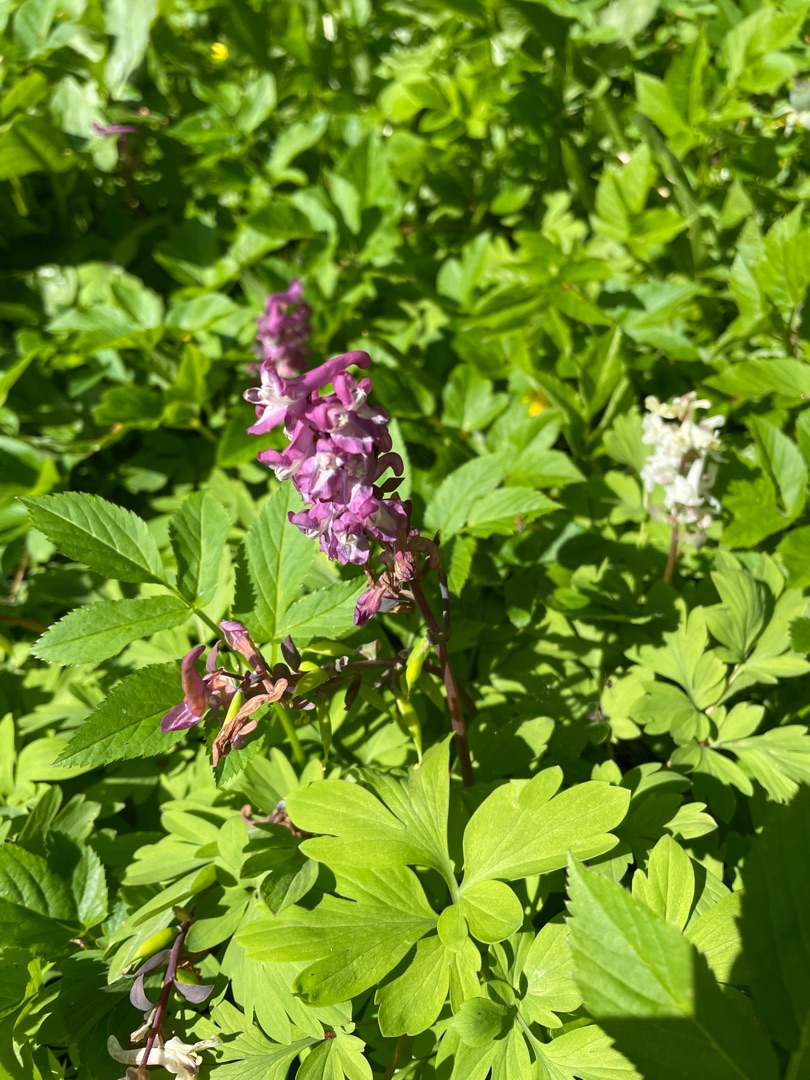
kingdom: Plantae
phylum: Tracheophyta
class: Magnoliopsida
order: Ranunculales
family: Papaveraceae
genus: Corydalis
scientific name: Corydalis cava
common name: Hulrodet lærkespore
